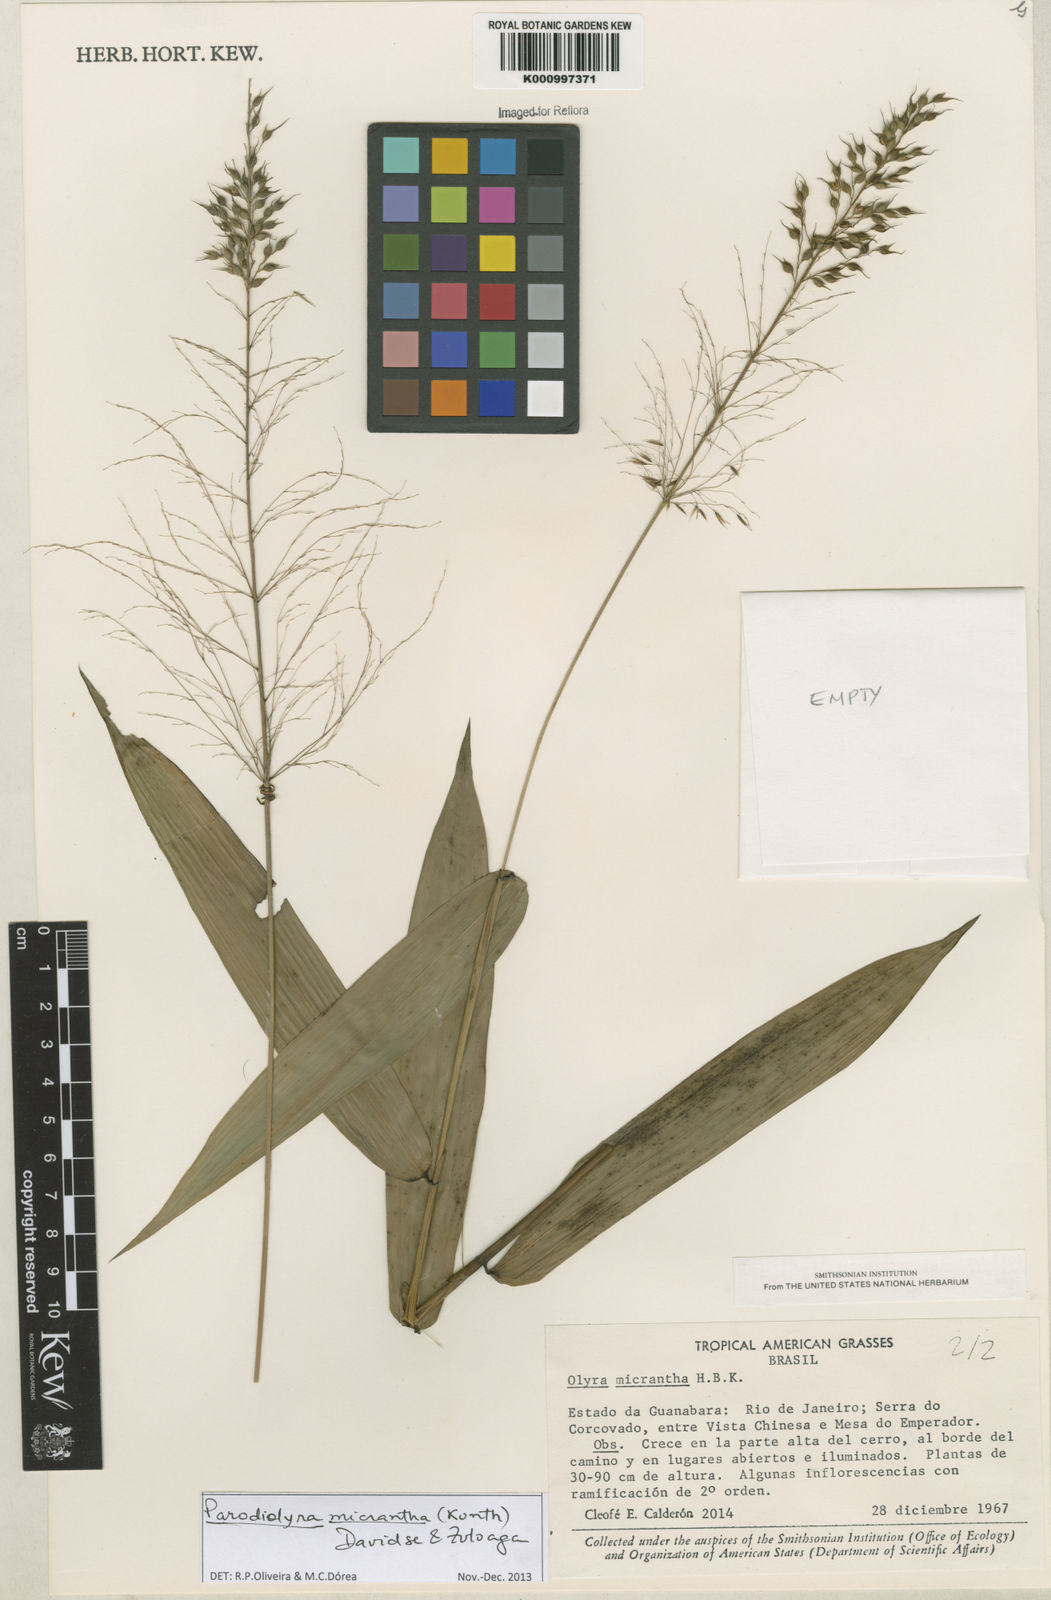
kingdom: Plantae
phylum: Tracheophyta
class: Liliopsida
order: Poales
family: Poaceae
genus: Taquara
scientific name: Taquara micrantha
